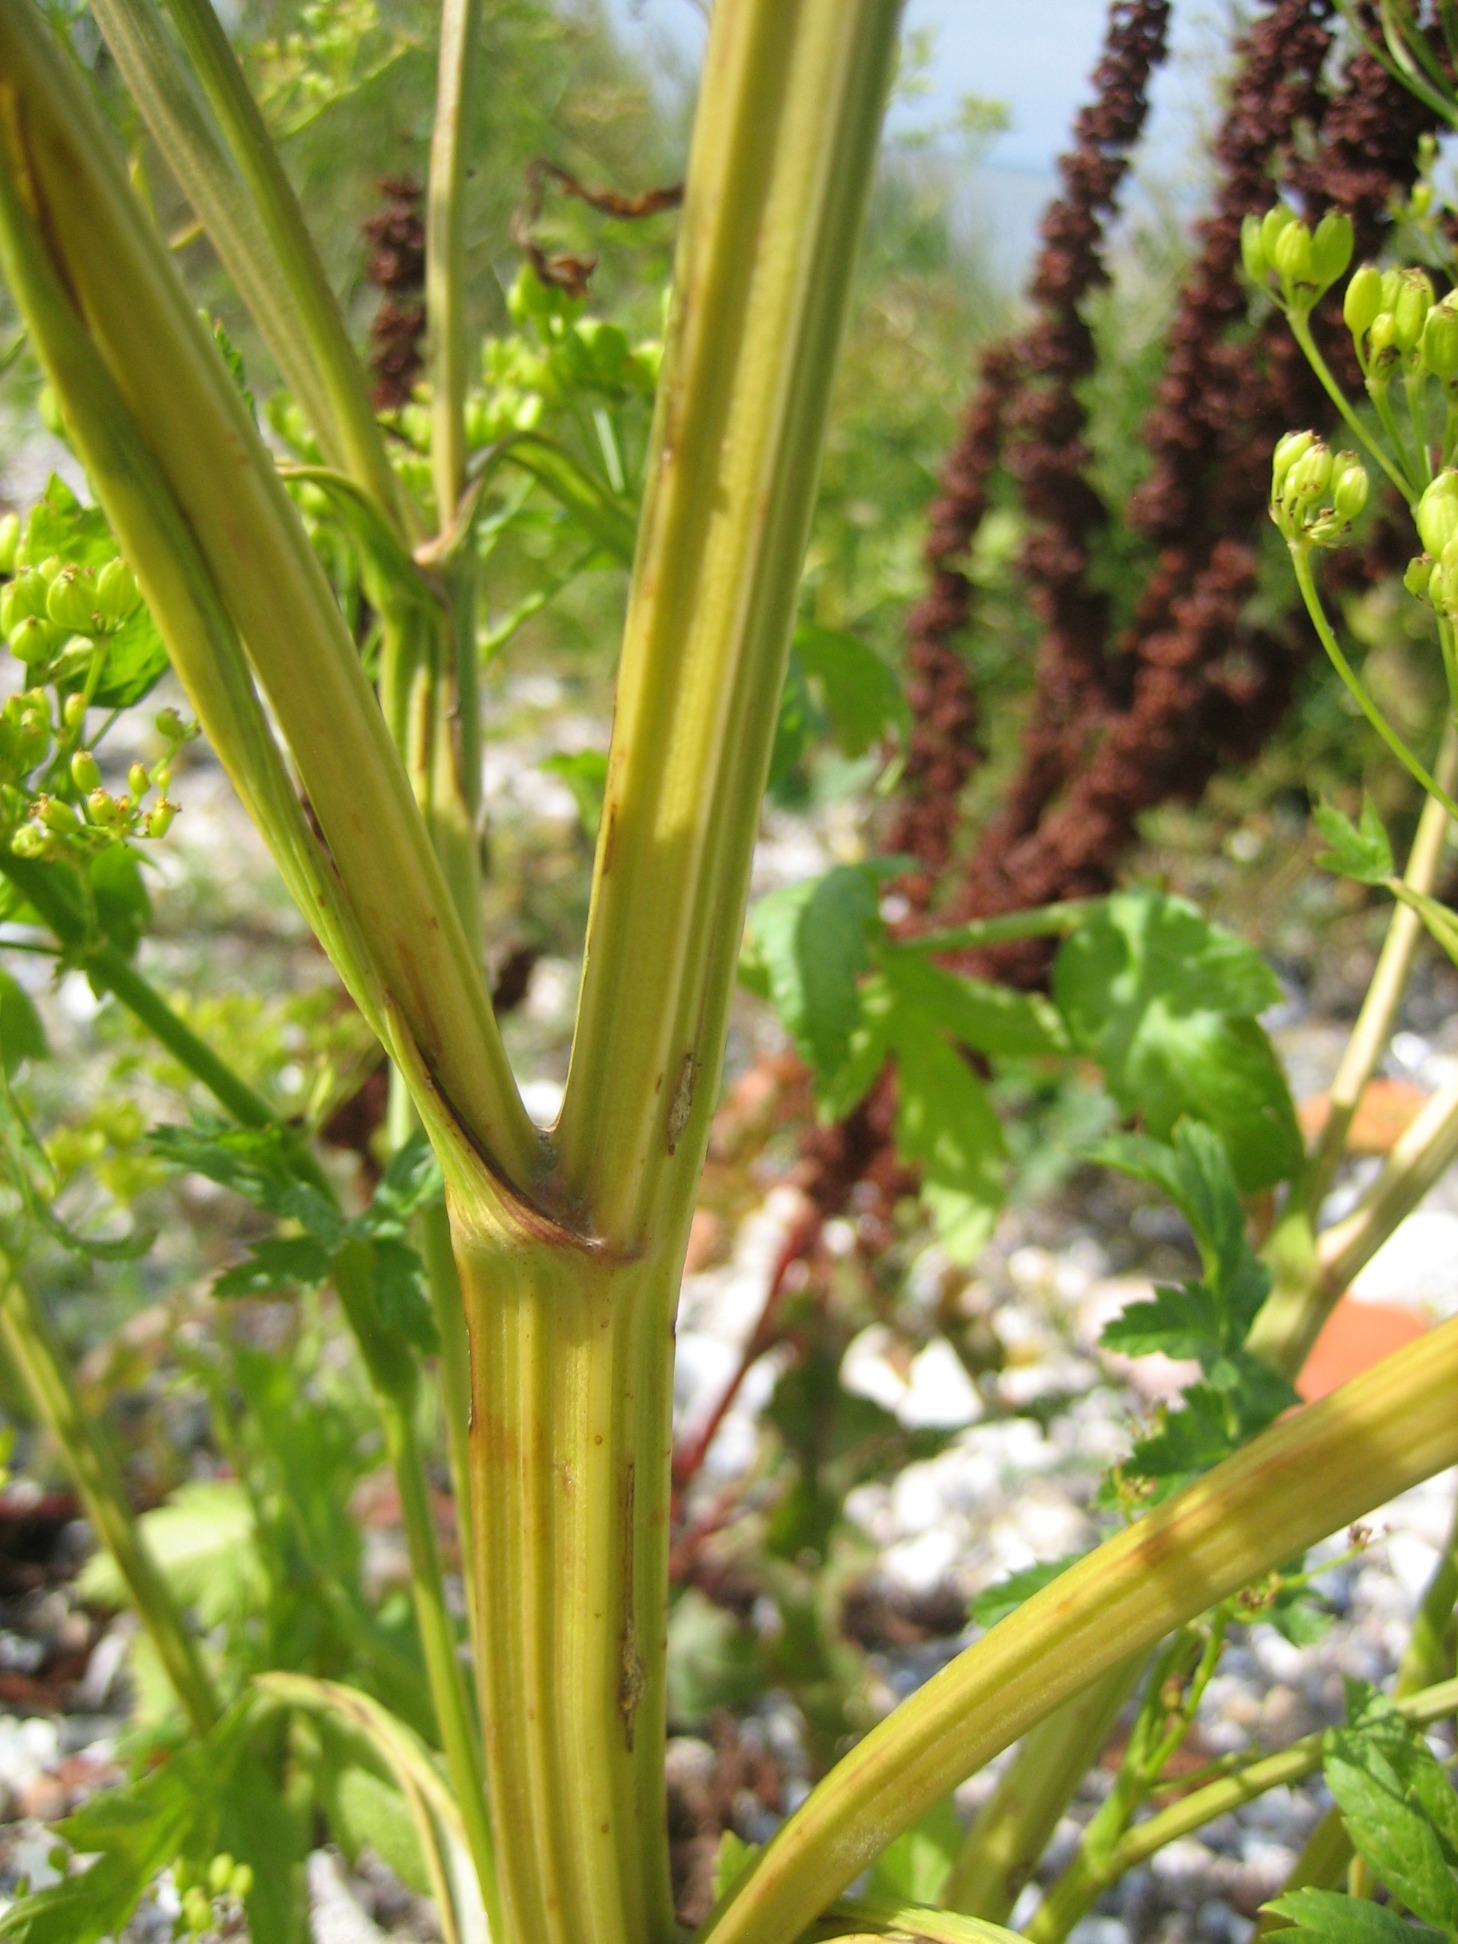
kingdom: Plantae
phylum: Tracheophyta
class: Magnoliopsida
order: Apiales
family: Apiaceae
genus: Pastinaca
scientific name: Pastinaca sativa
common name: Pastinak
